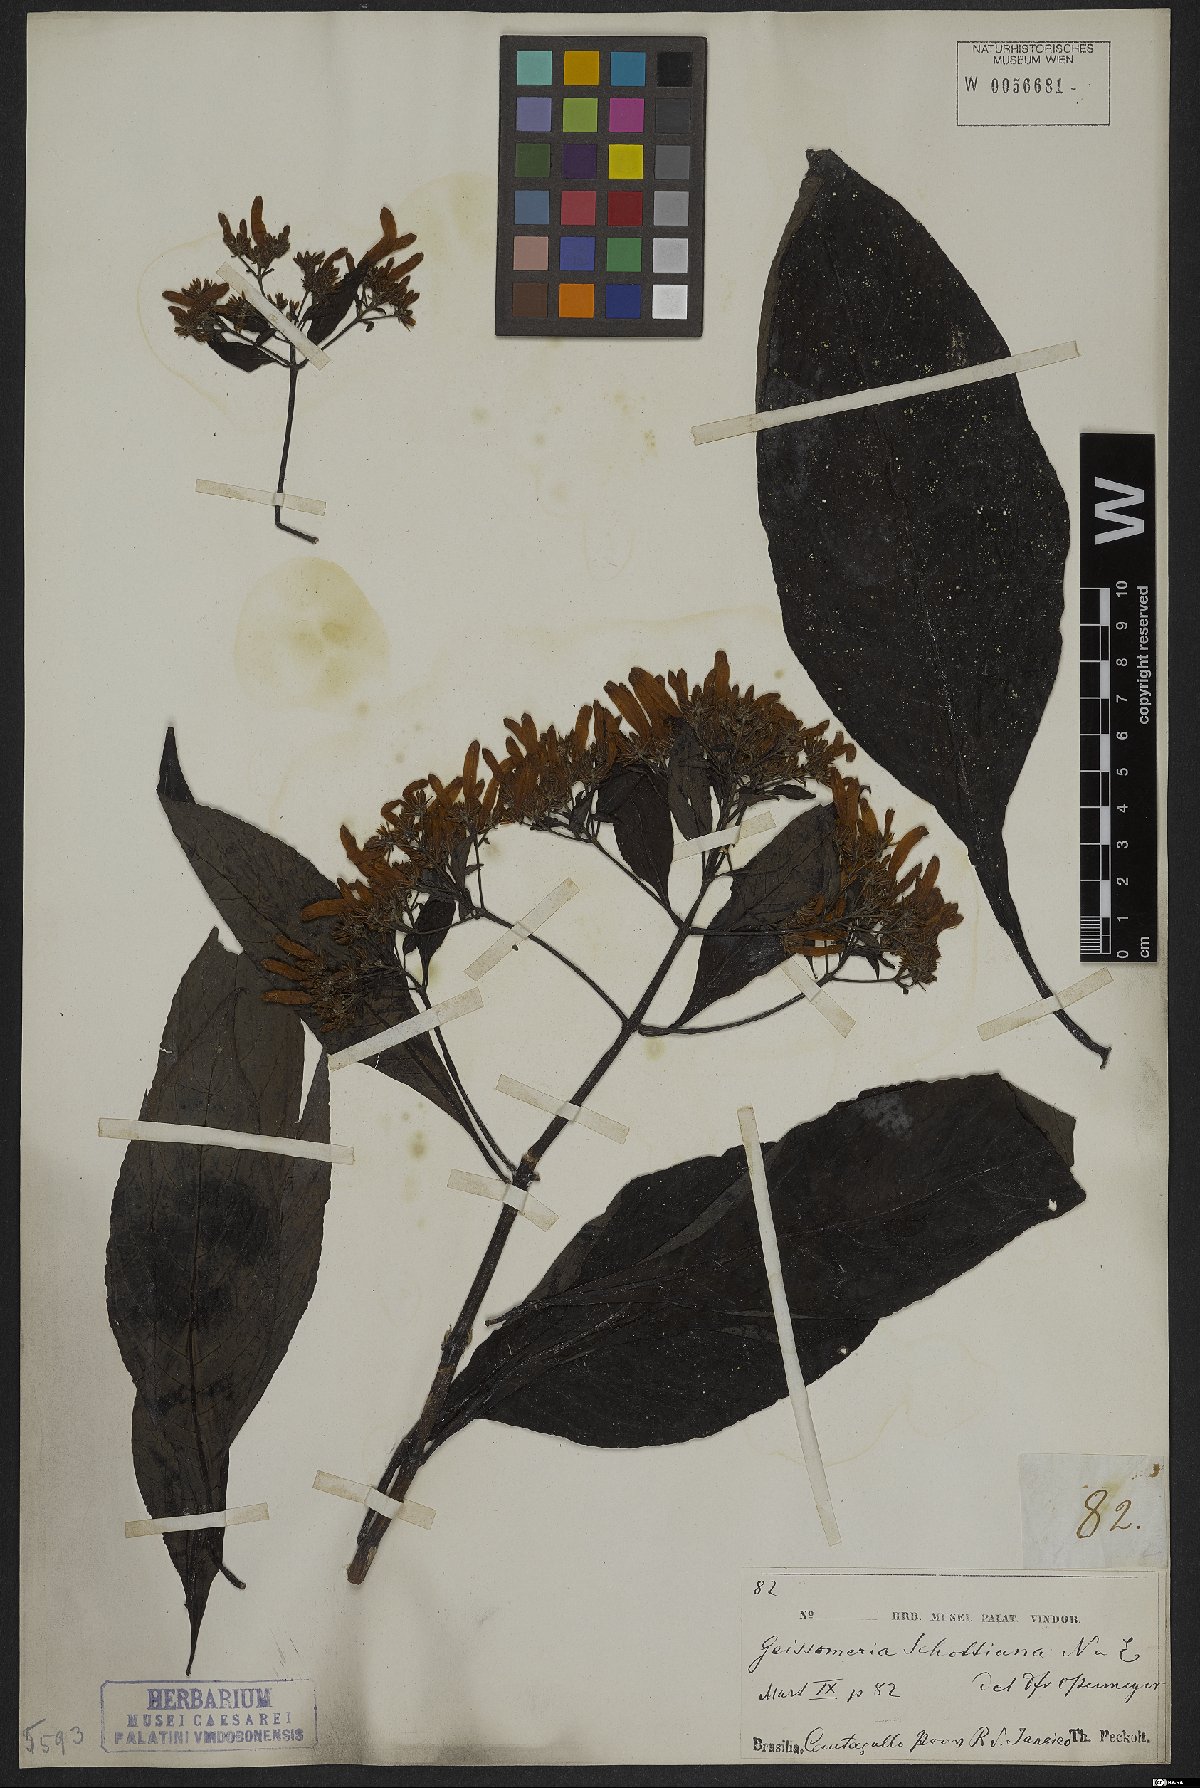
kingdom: Plantae
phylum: Tracheophyta
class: Magnoliopsida
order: Lamiales
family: Acanthaceae
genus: Aphelandra
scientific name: Aphelandra schottiana
